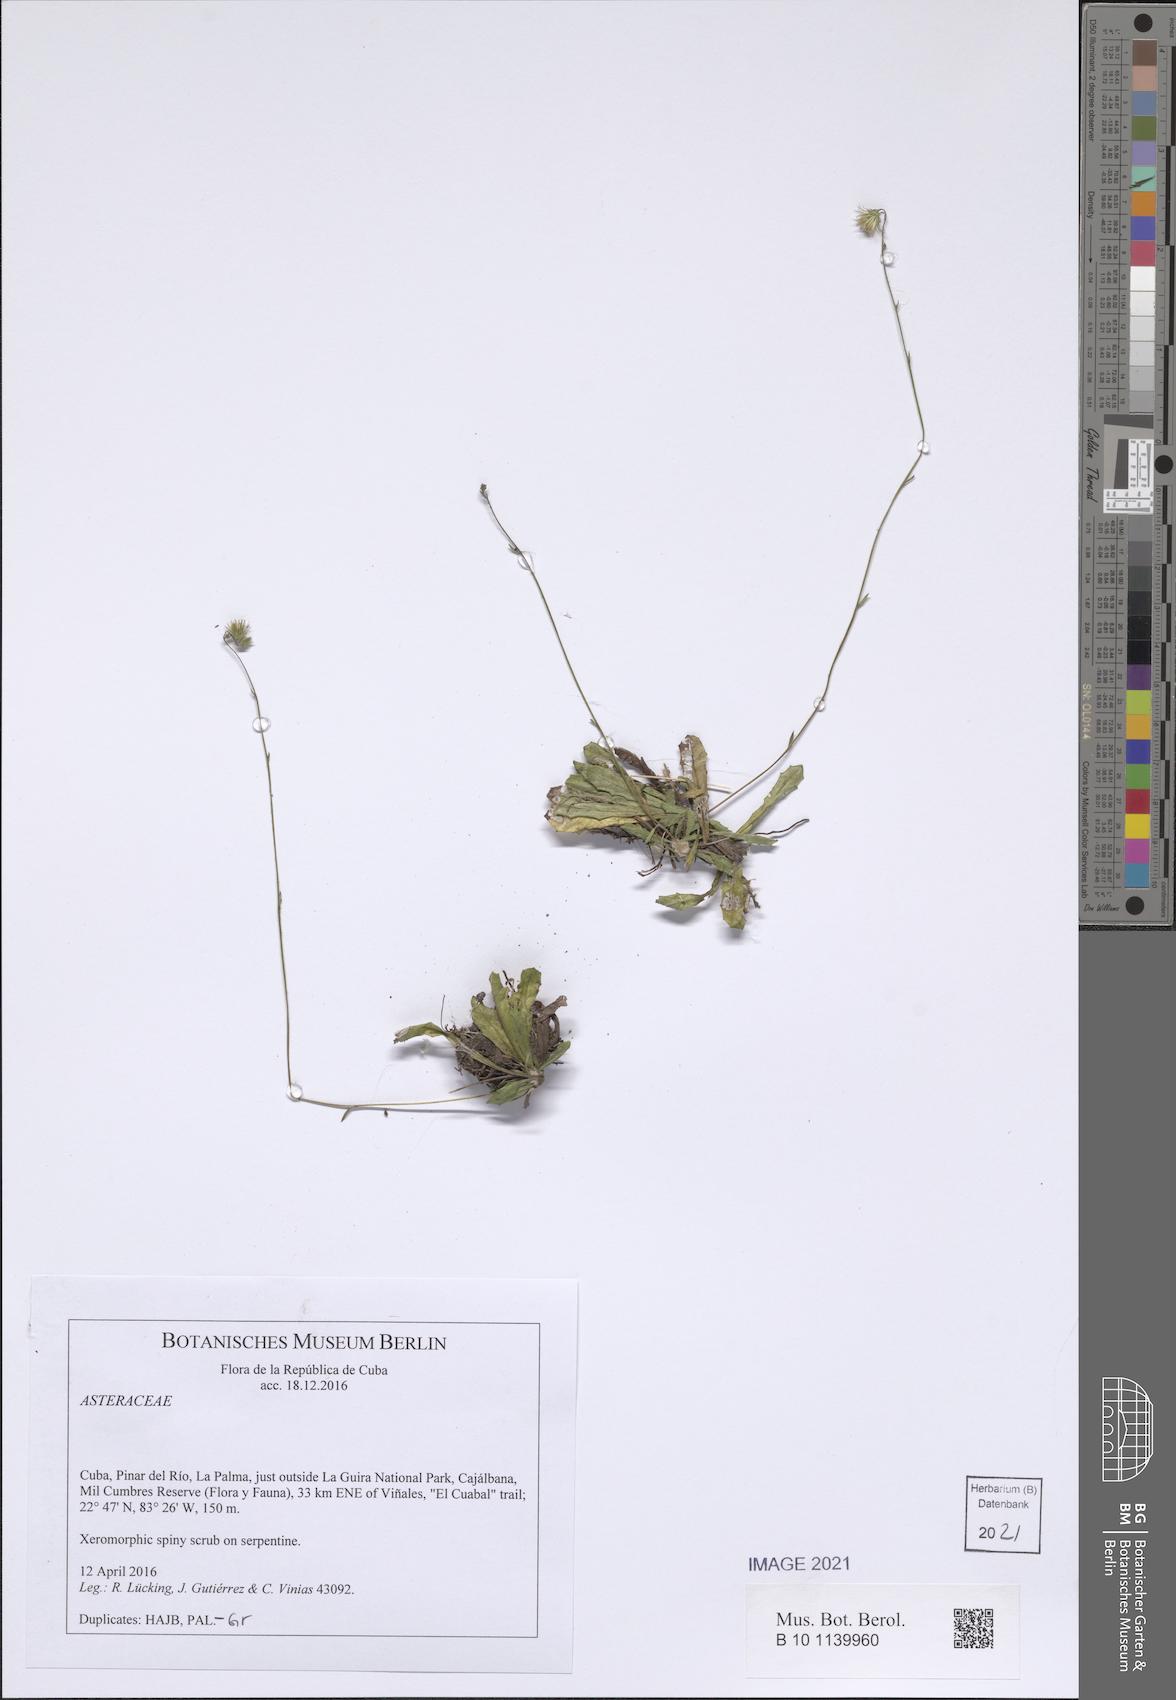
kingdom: Plantae
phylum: Tracheophyta
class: Magnoliopsida
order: Asterales
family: Asteraceae
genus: Erigeron
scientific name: Erigeron thrincioides
